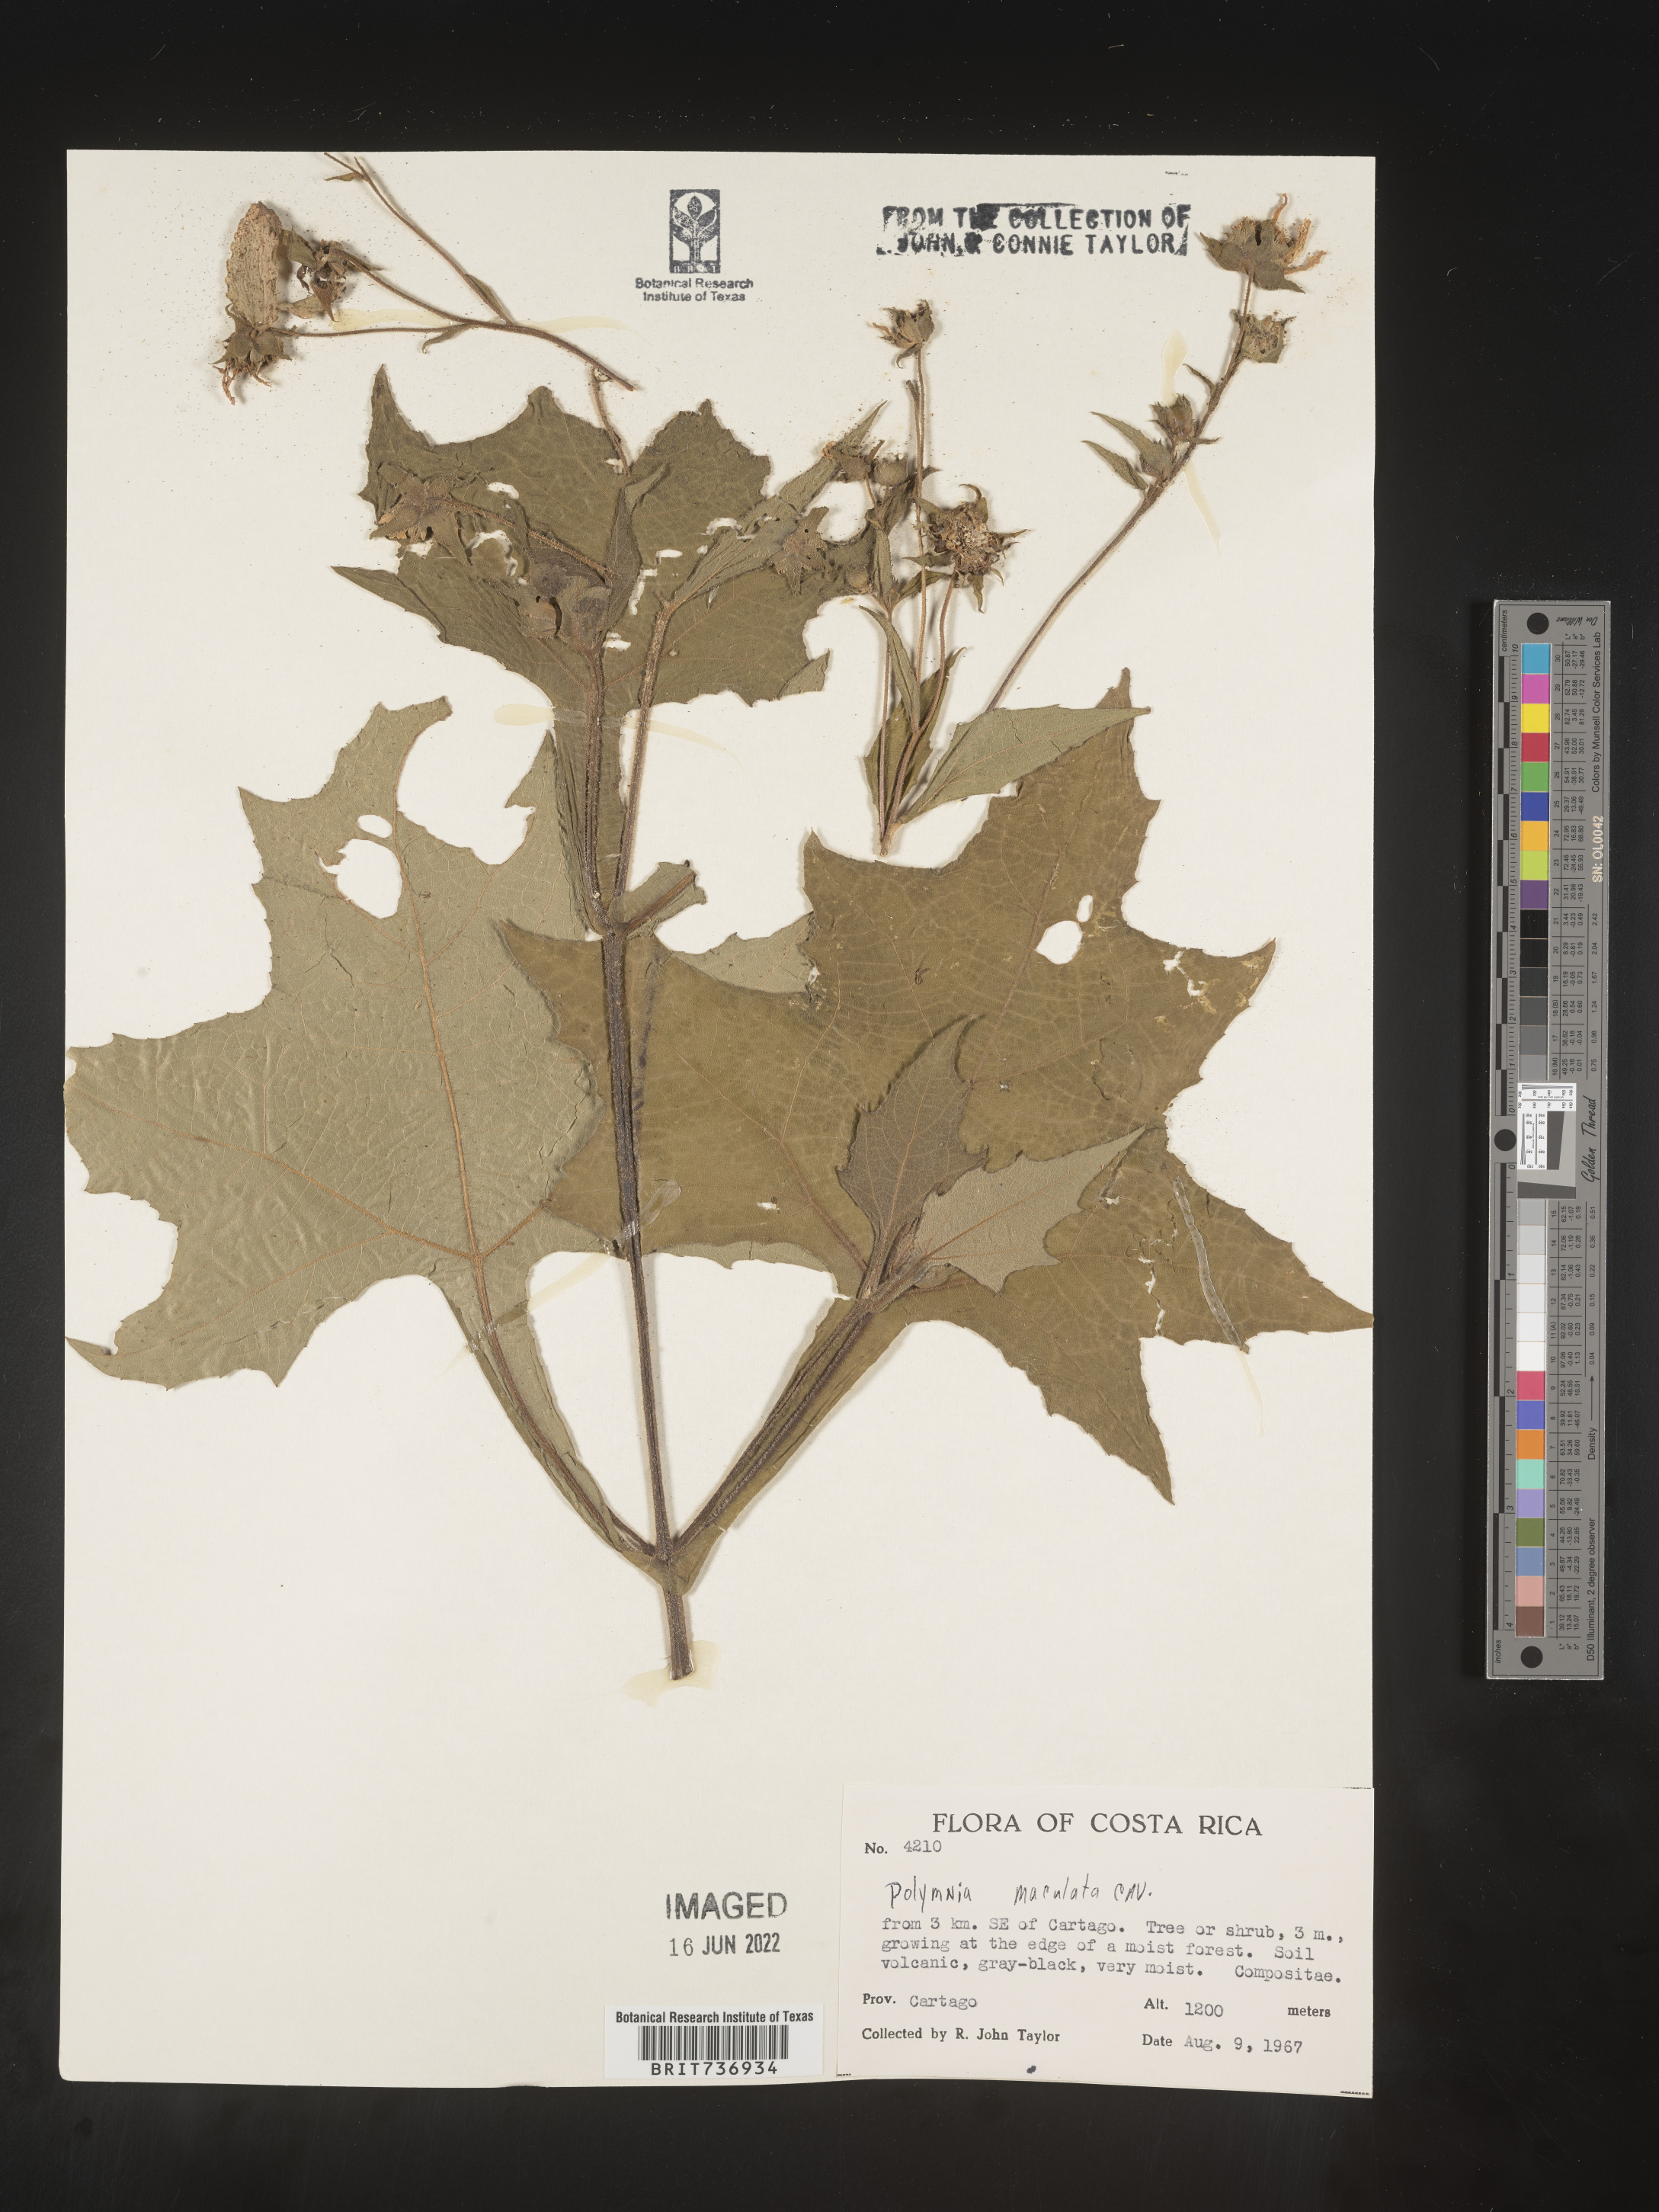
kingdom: Plantae
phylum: Tracheophyta
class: Magnoliopsida
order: Asterales
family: Asteraceae
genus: Polymnia
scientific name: Polymnia
